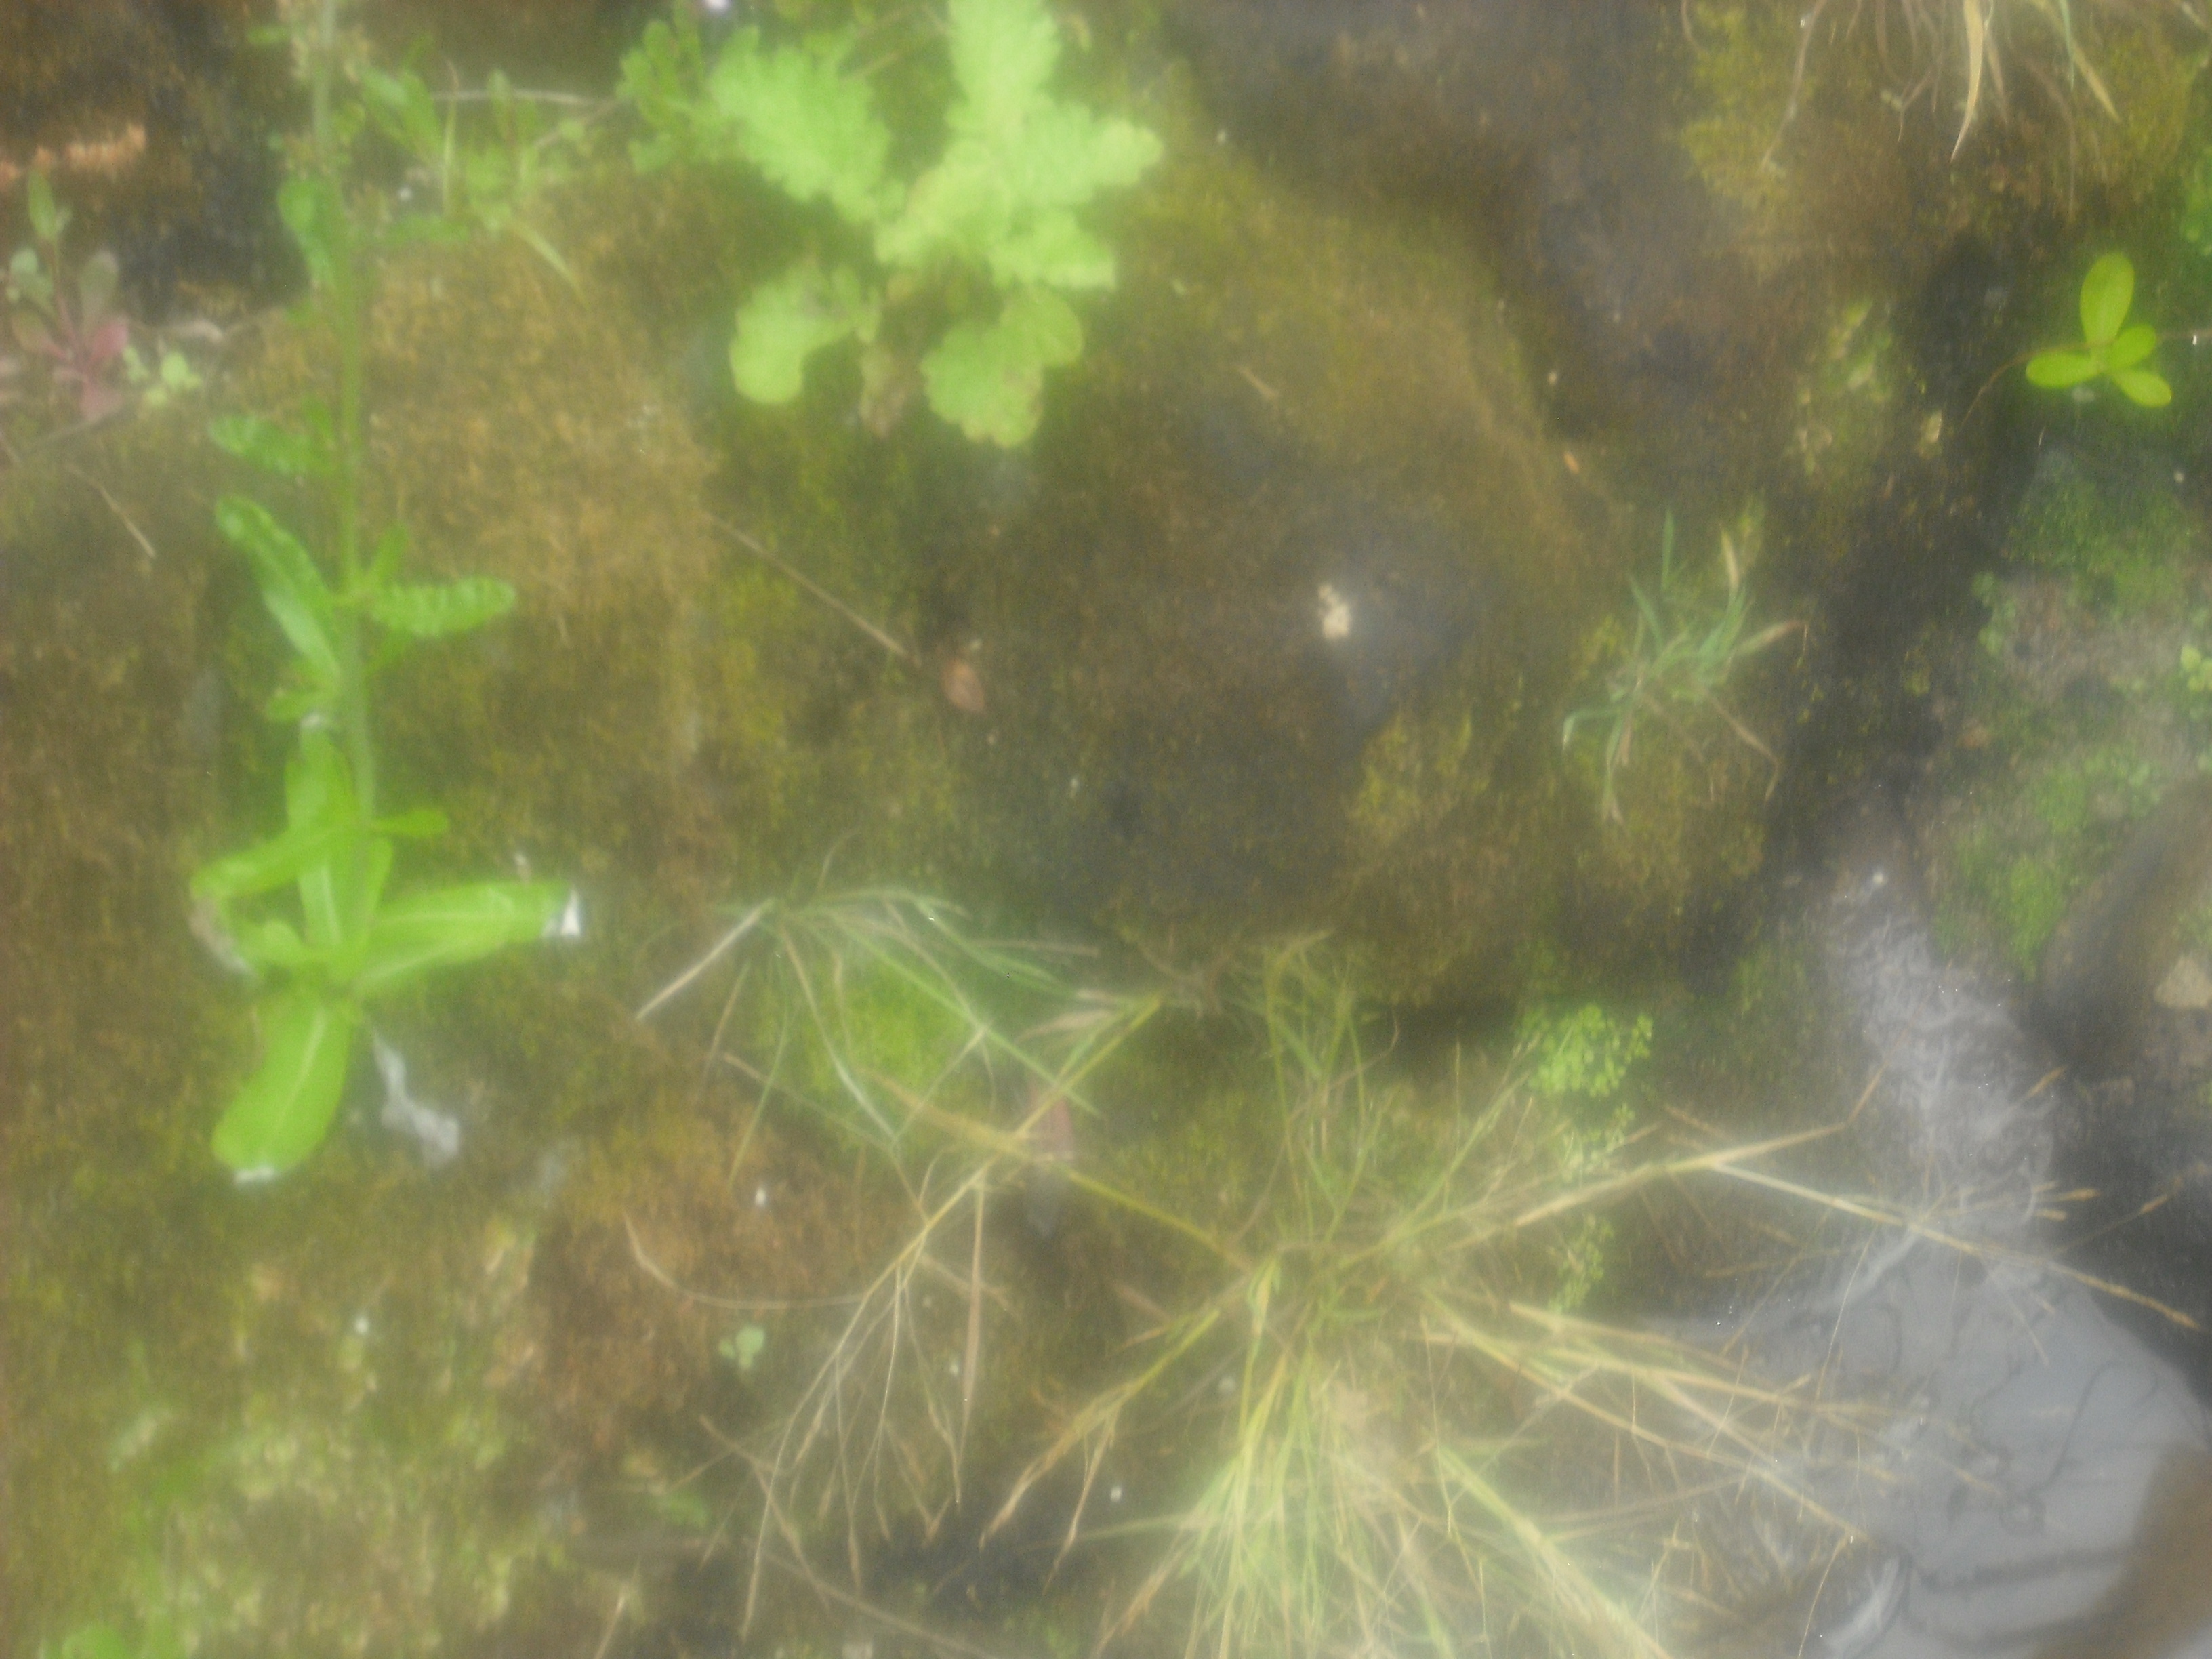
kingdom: Plantae
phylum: Tracheophyta
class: Liliopsida
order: Poales
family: Poaceae
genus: Lachnagrostis
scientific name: Lachnagrostis littoralis
